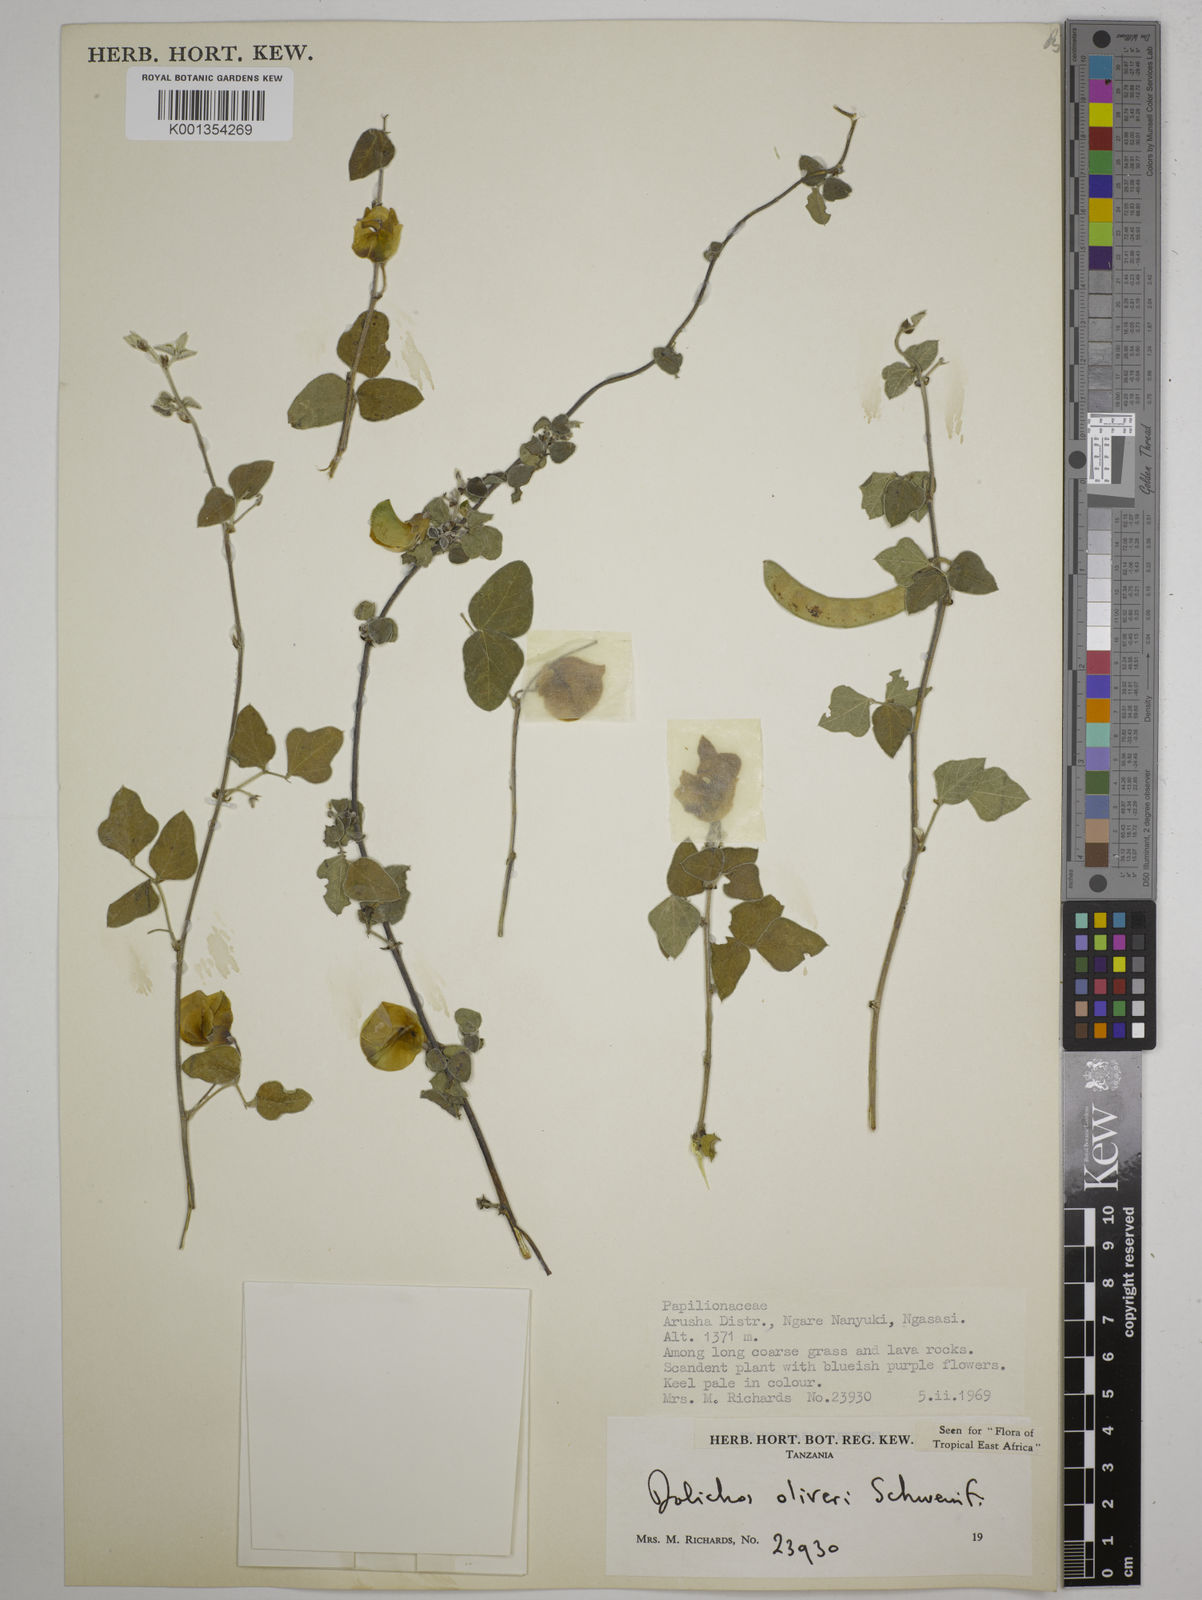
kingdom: Plantae
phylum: Tracheophyta
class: Magnoliopsida
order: Fabales
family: Fabaceae
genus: Dolichos
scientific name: Dolichos oliveri
